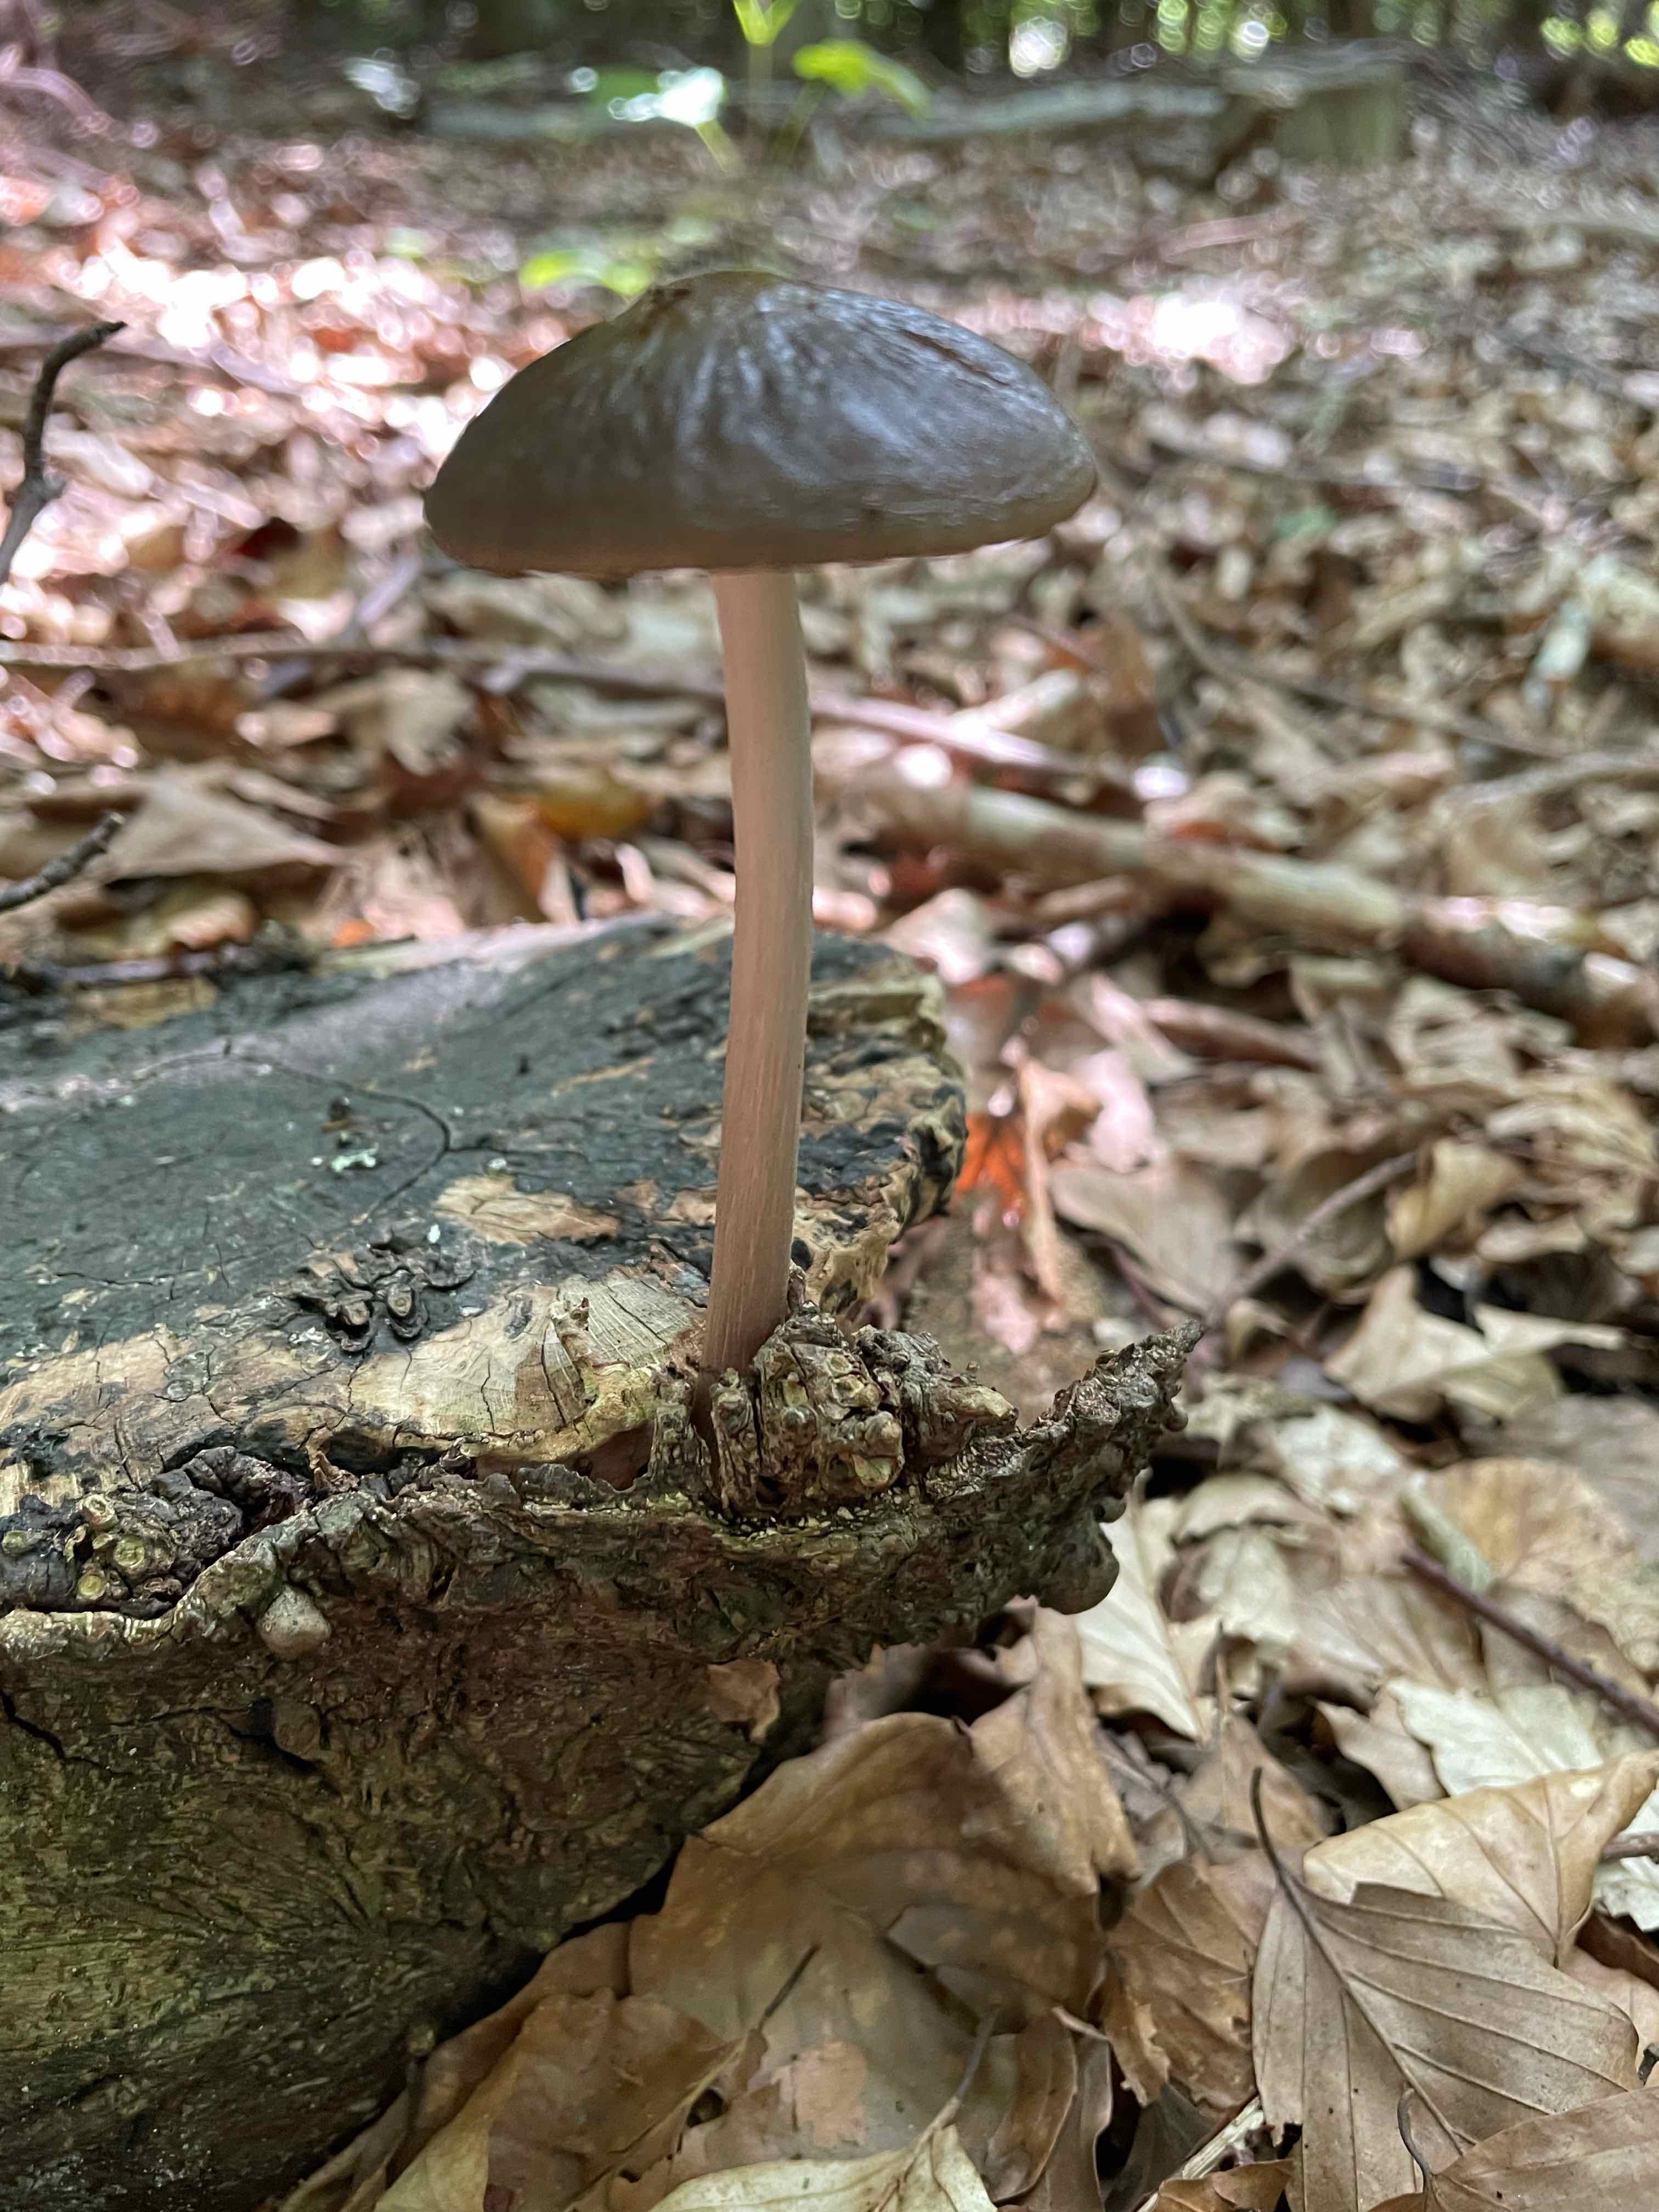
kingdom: Fungi
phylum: Basidiomycota
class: Agaricomycetes
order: Agaricales
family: Physalacriaceae
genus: Hymenopellis
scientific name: Hymenopellis radicata
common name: almindelig pælerodshat
